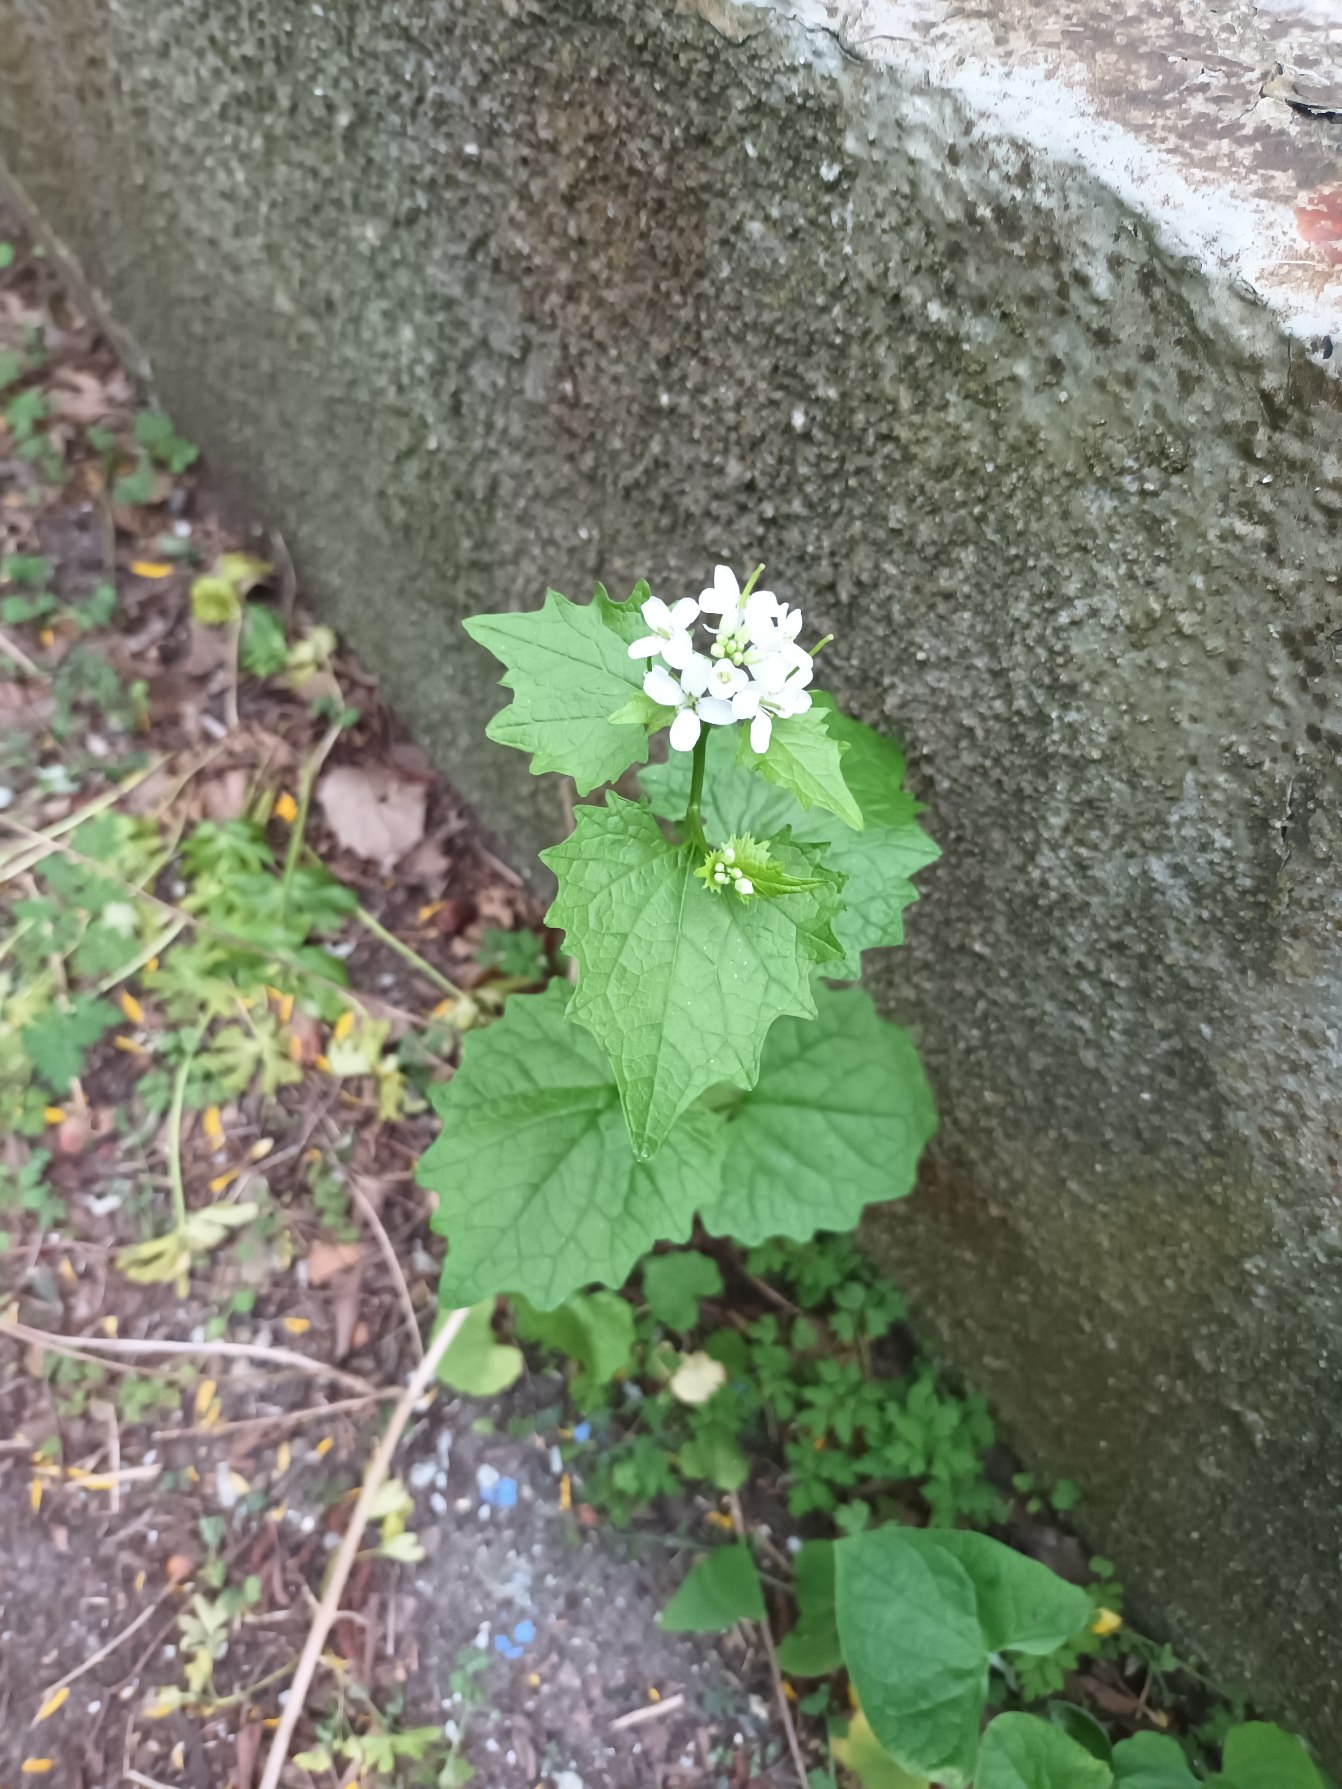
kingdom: Plantae
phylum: Tracheophyta
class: Magnoliopsida
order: Brassicales
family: Brassicaceae
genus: Alliaria
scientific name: Alliaria petiolata
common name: Løgkarse
